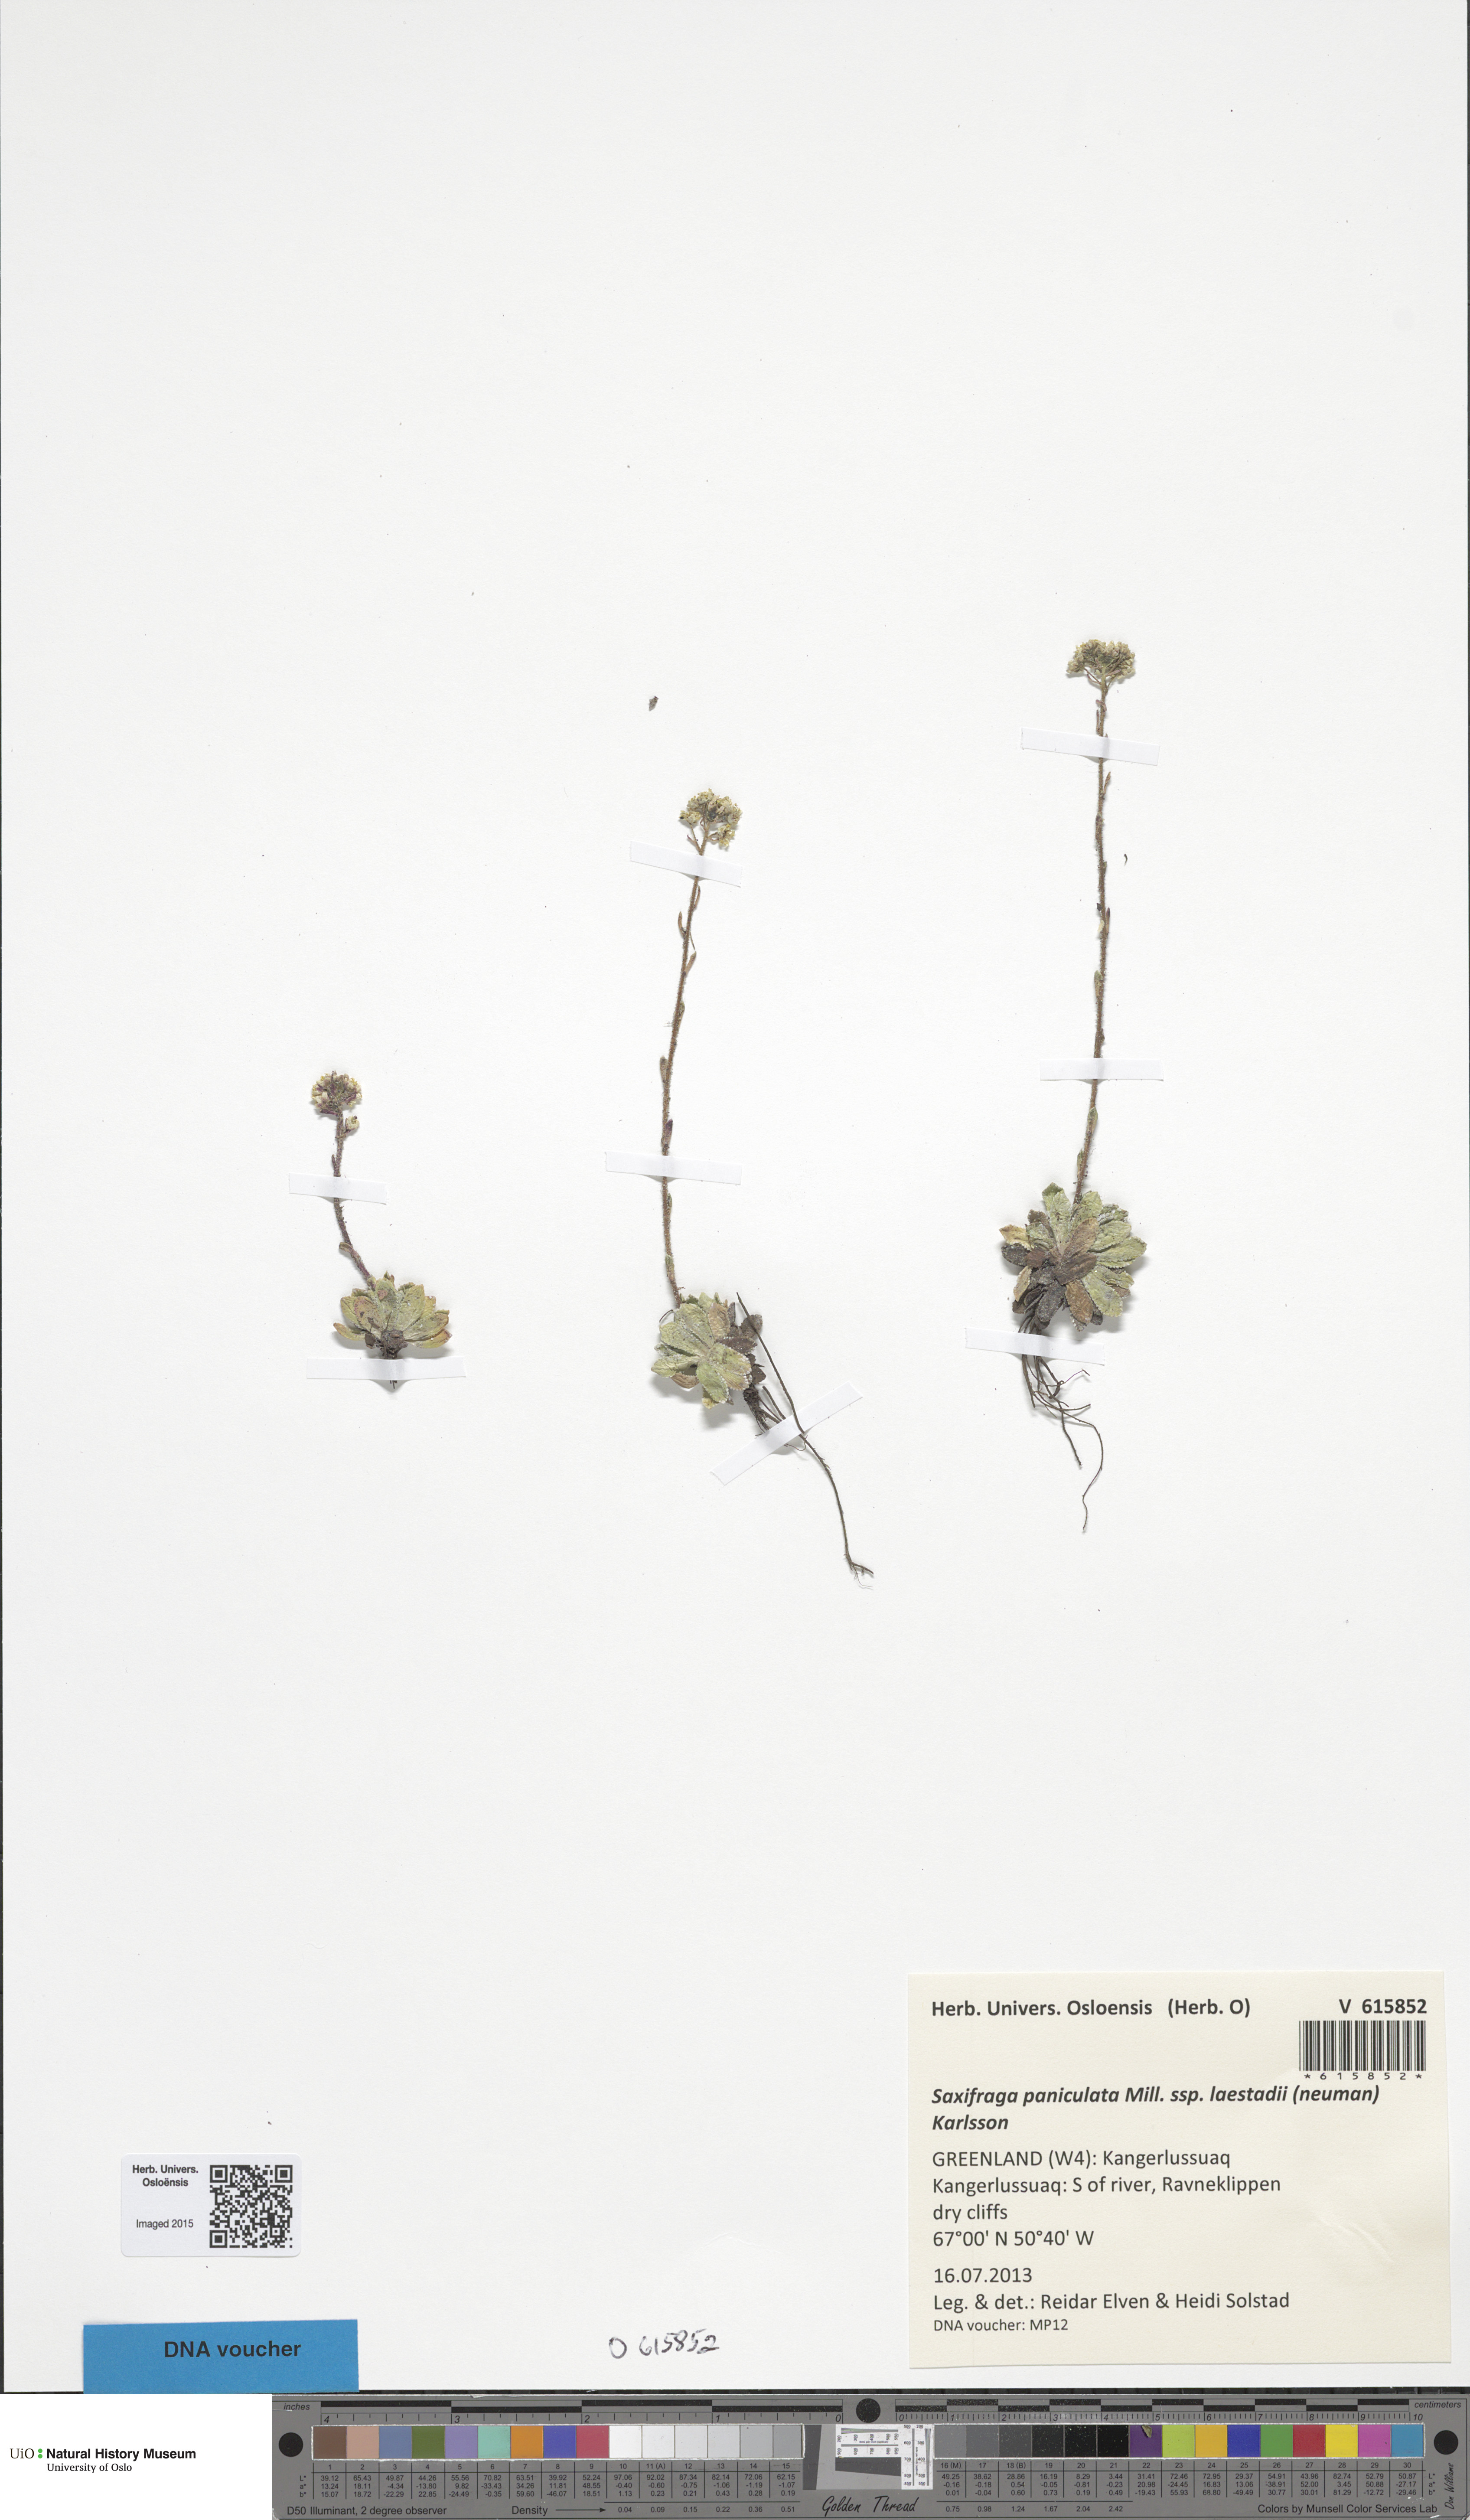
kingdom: Plantae
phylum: Tracheophyta
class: Magnoliopsida
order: Saxifragales
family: Saxifragaceae
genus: Saxifraga
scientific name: Saxifraga paniculata
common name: Livelong saxifrage
